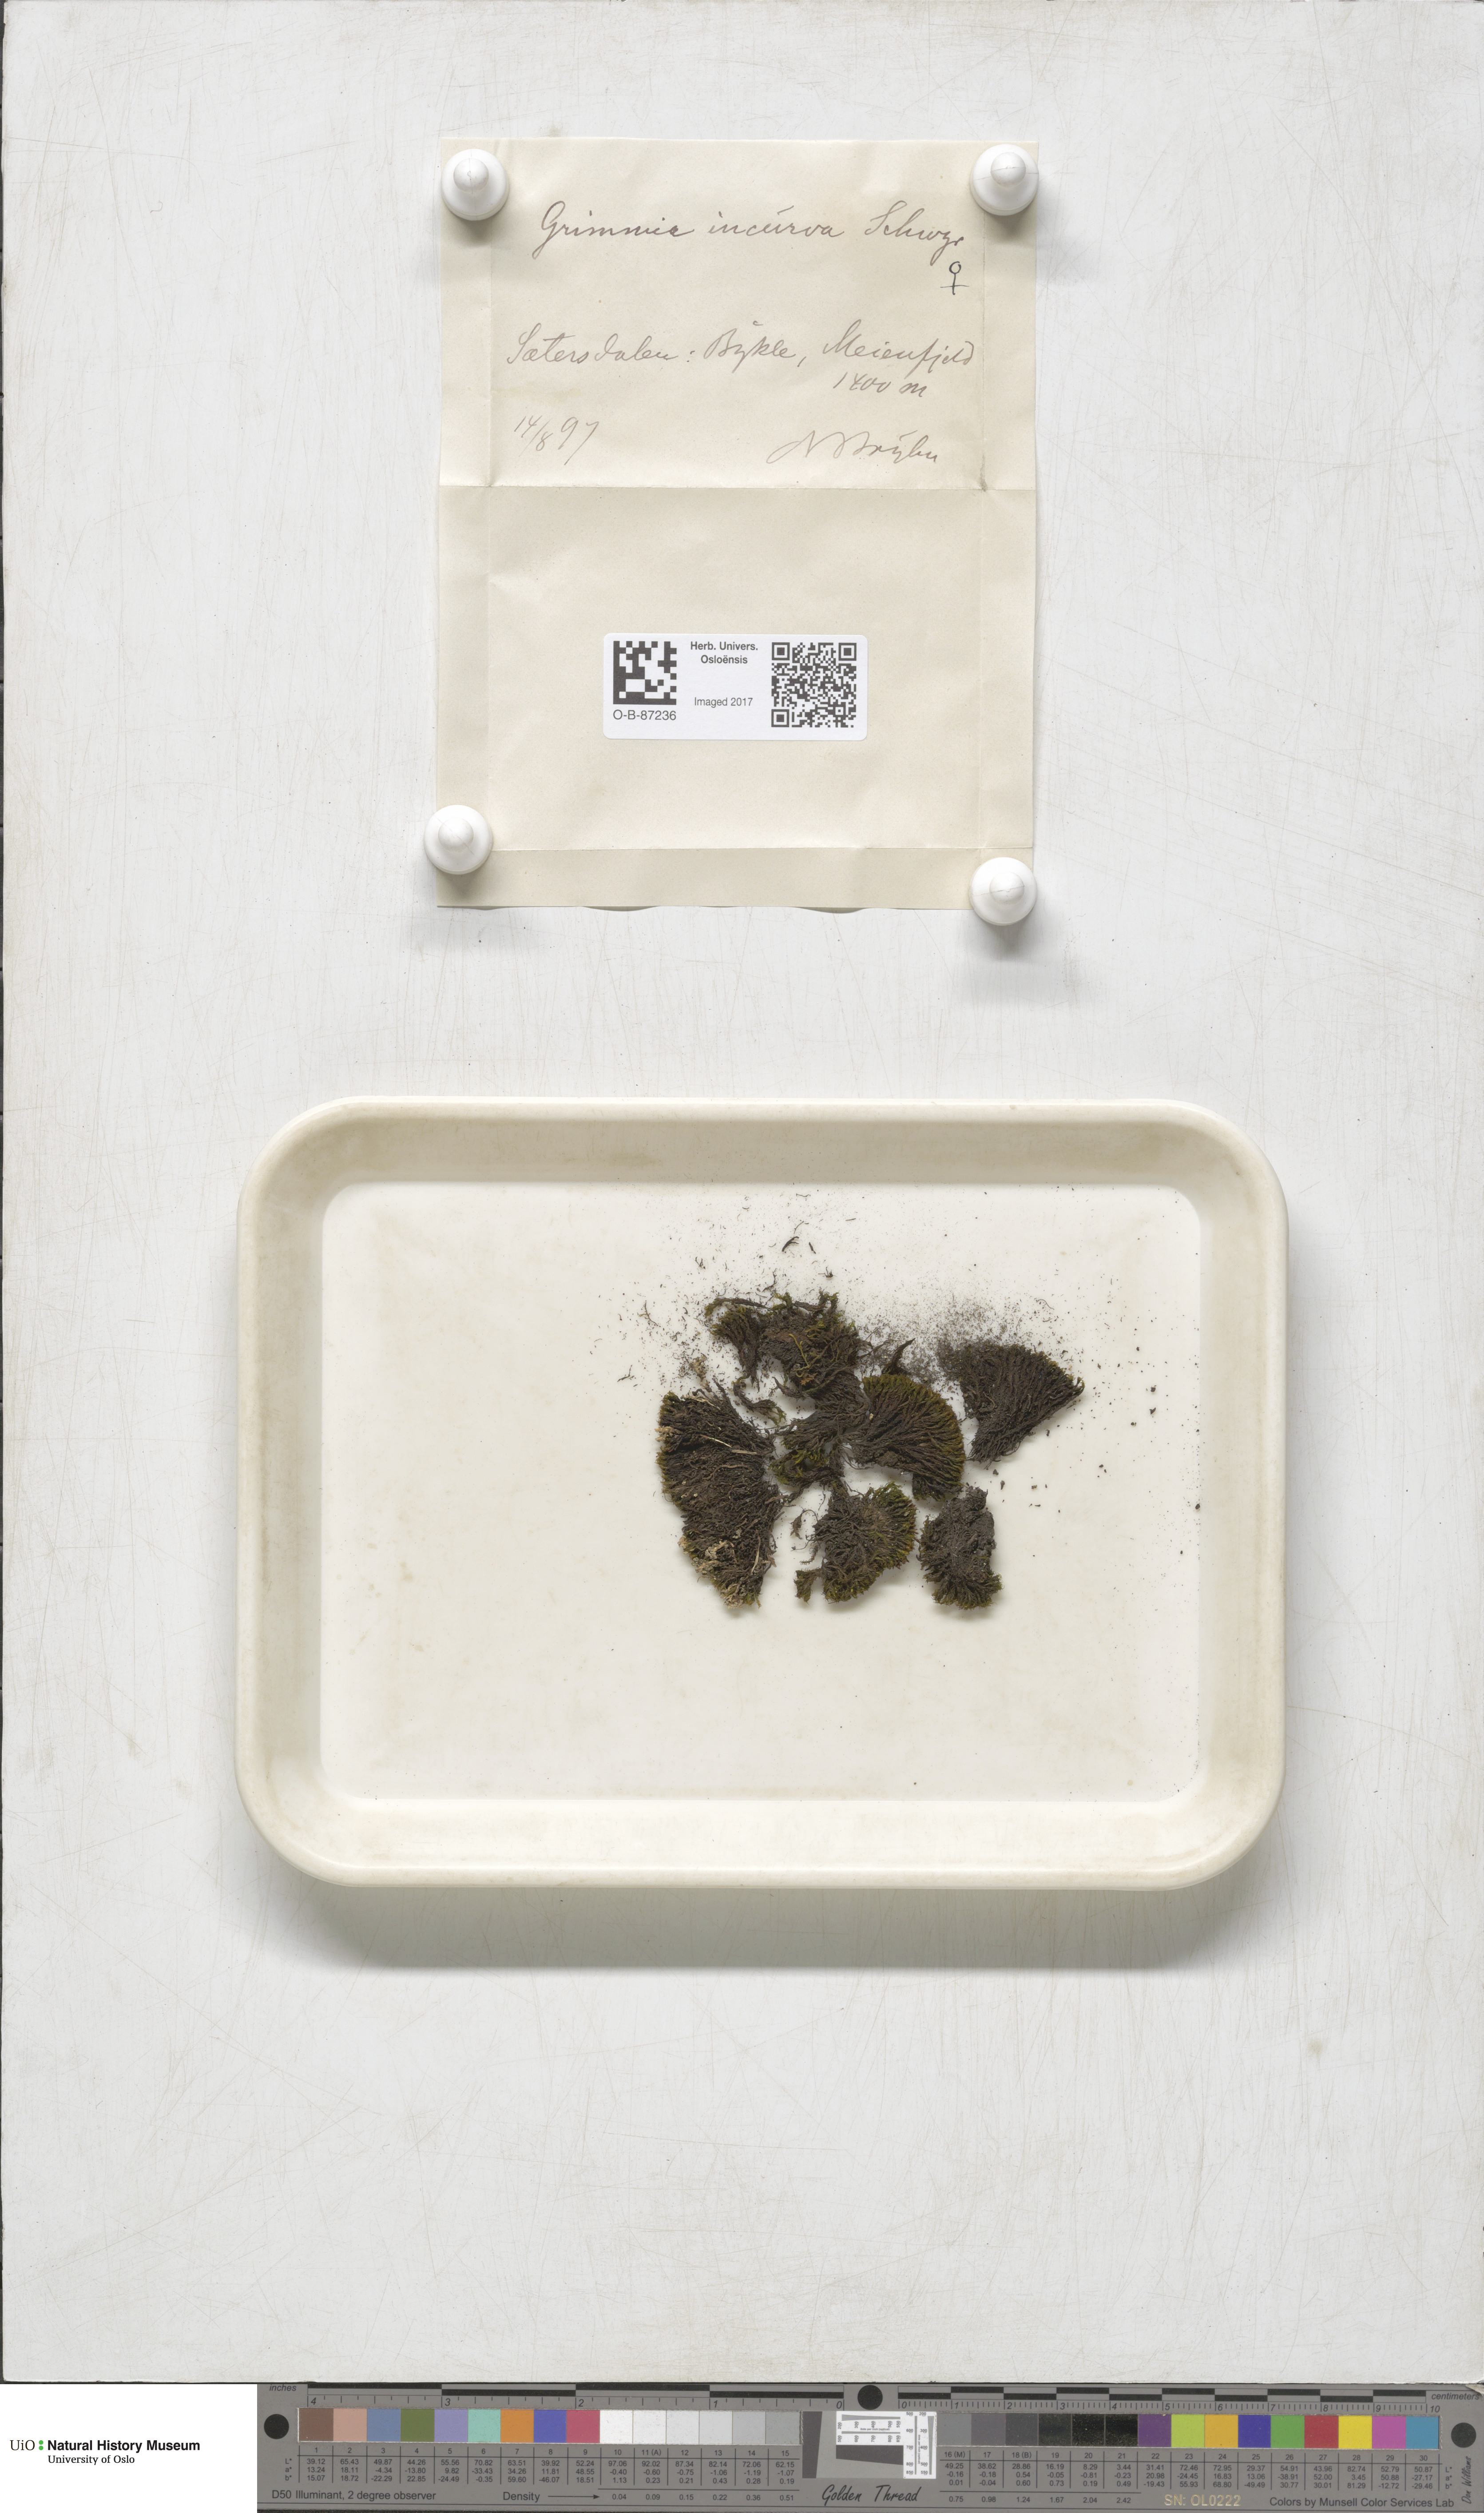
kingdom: Plantae
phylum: Bryophyta
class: Bryopsida
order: Grimmiales
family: Grimmiaceae
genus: Grimmia
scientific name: Grimmia incurva
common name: Black grimmia
